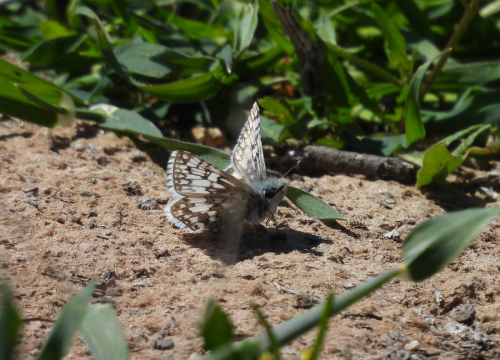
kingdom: Animalia
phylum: Arthropoda
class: Insecta
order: Lepidoptera
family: Hesperiidae
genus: Pyrgus
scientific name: Pyrgus communis
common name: Common Checkered-Skipper
